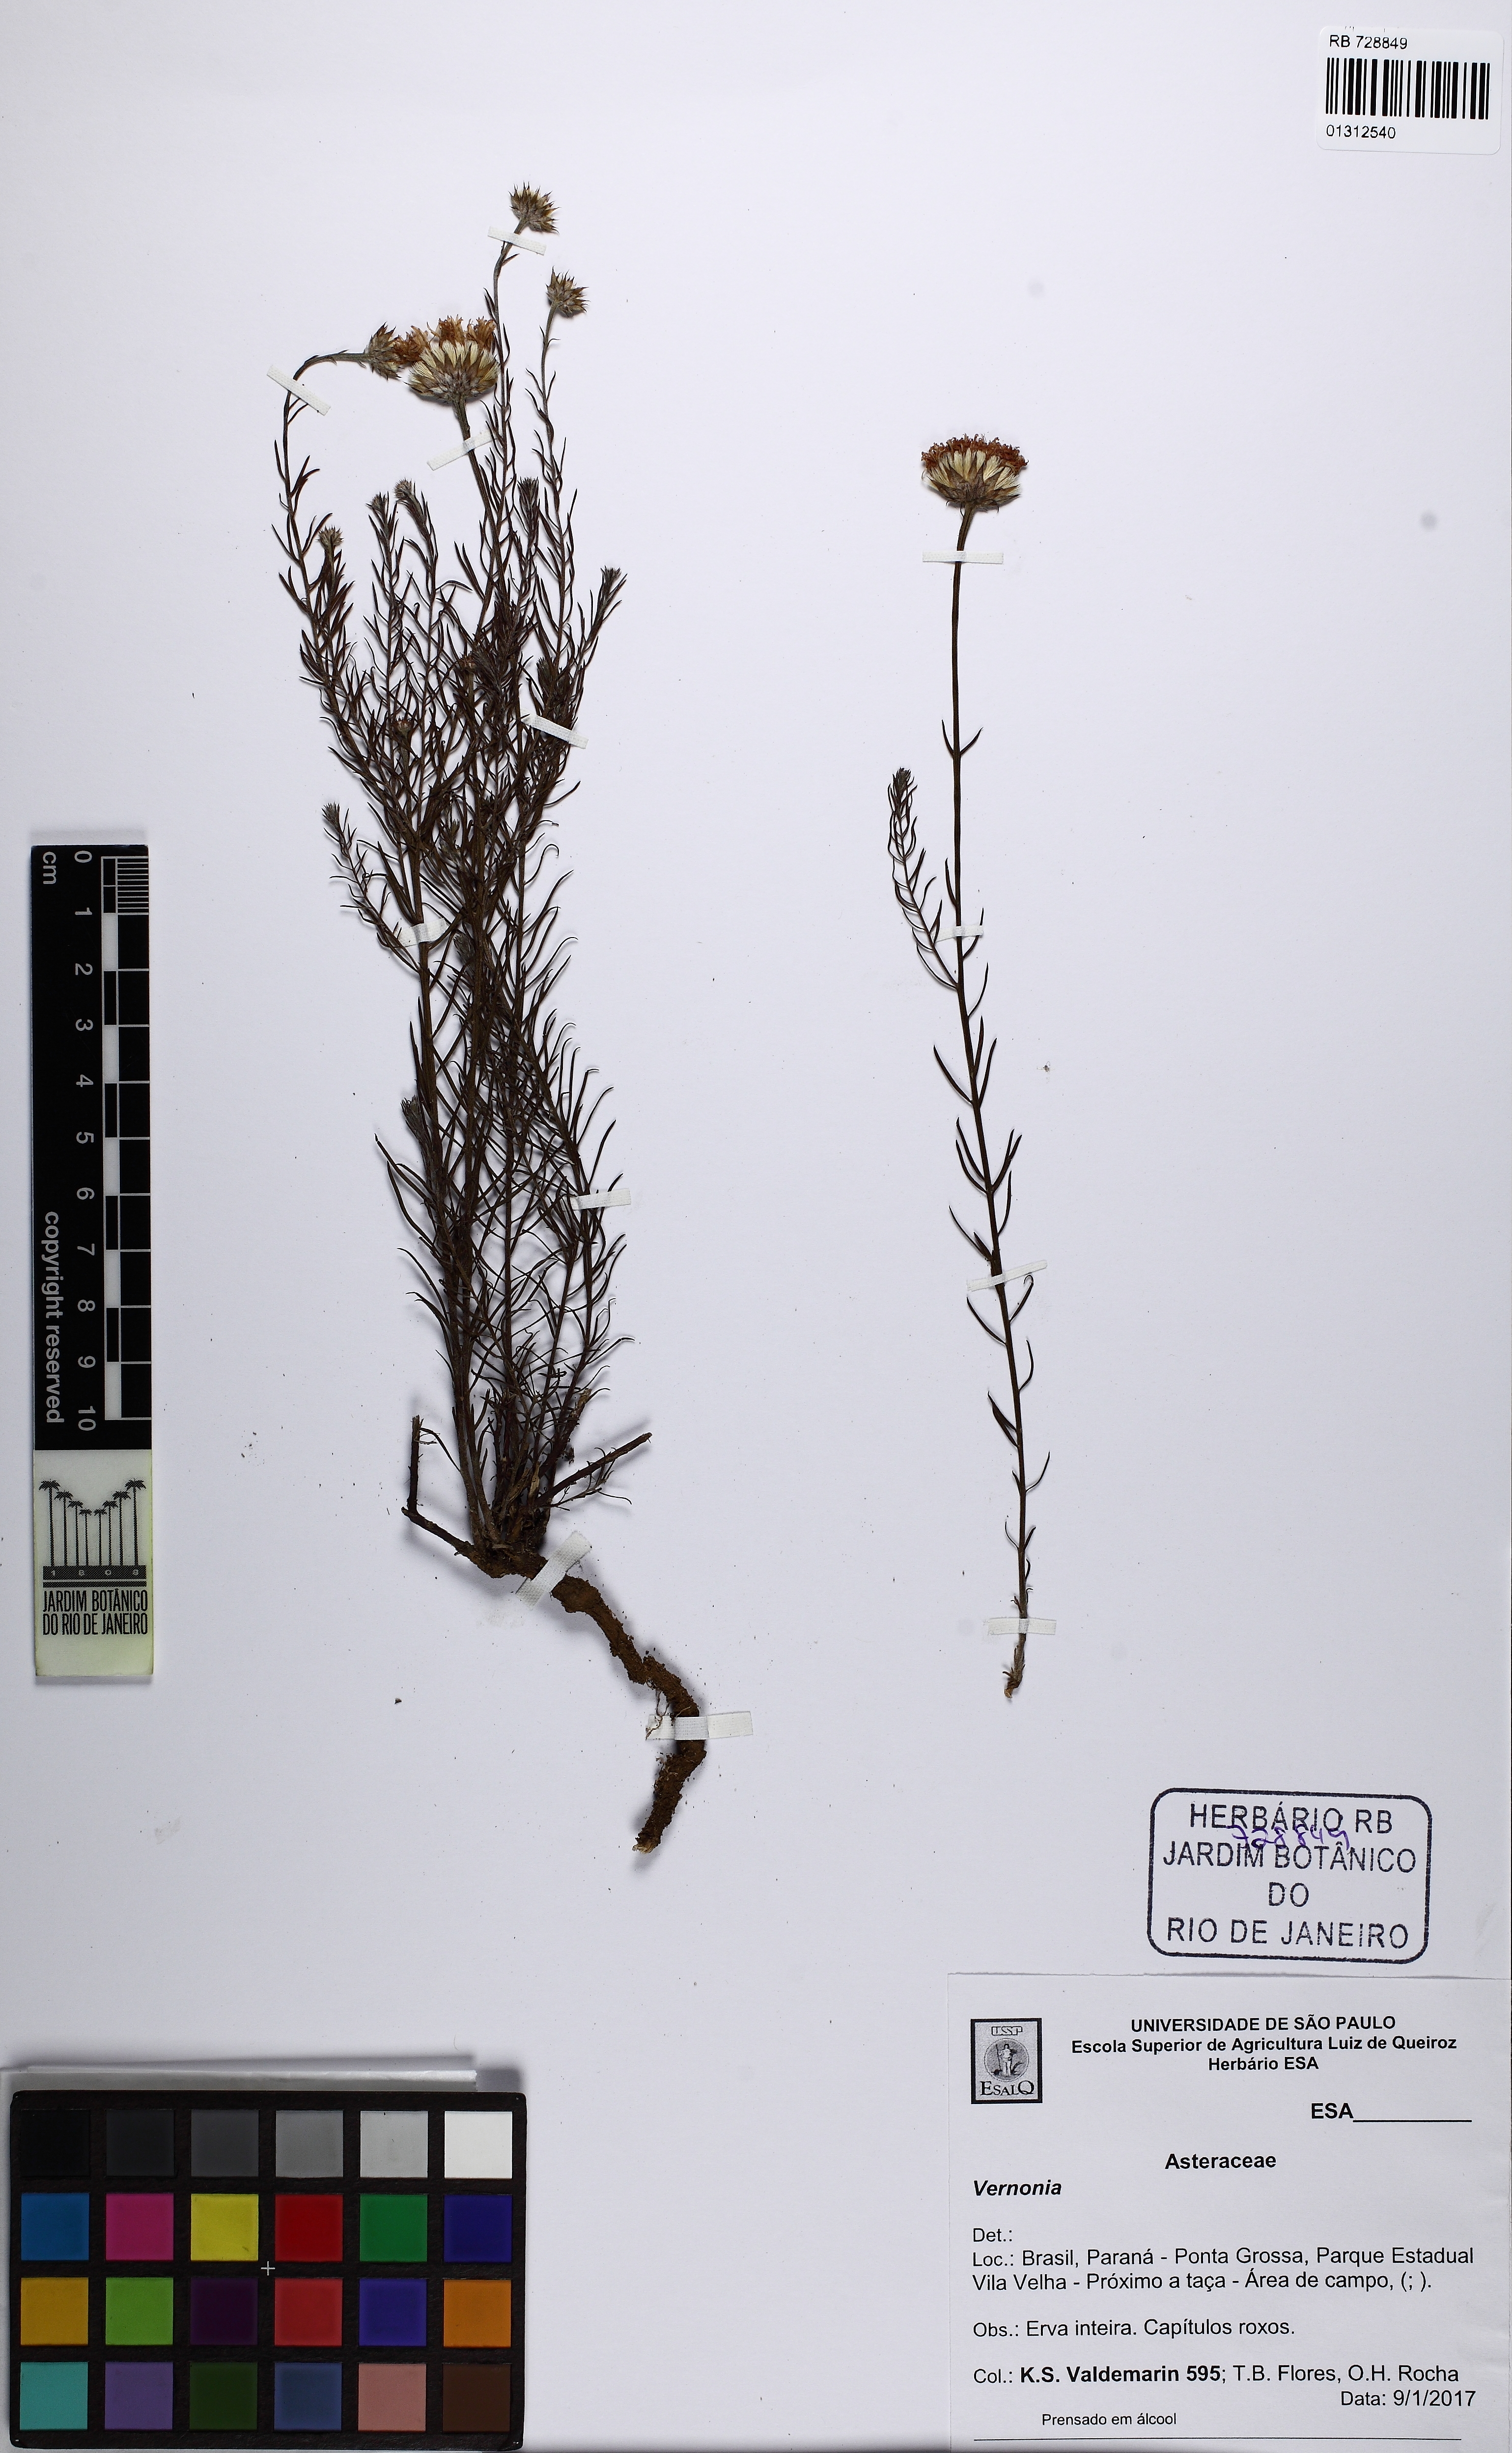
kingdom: Plantae
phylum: Tracheophyta
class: Magnoliopsida
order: Asterales
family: Asteraceae
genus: Vernonia
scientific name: Vernonia
